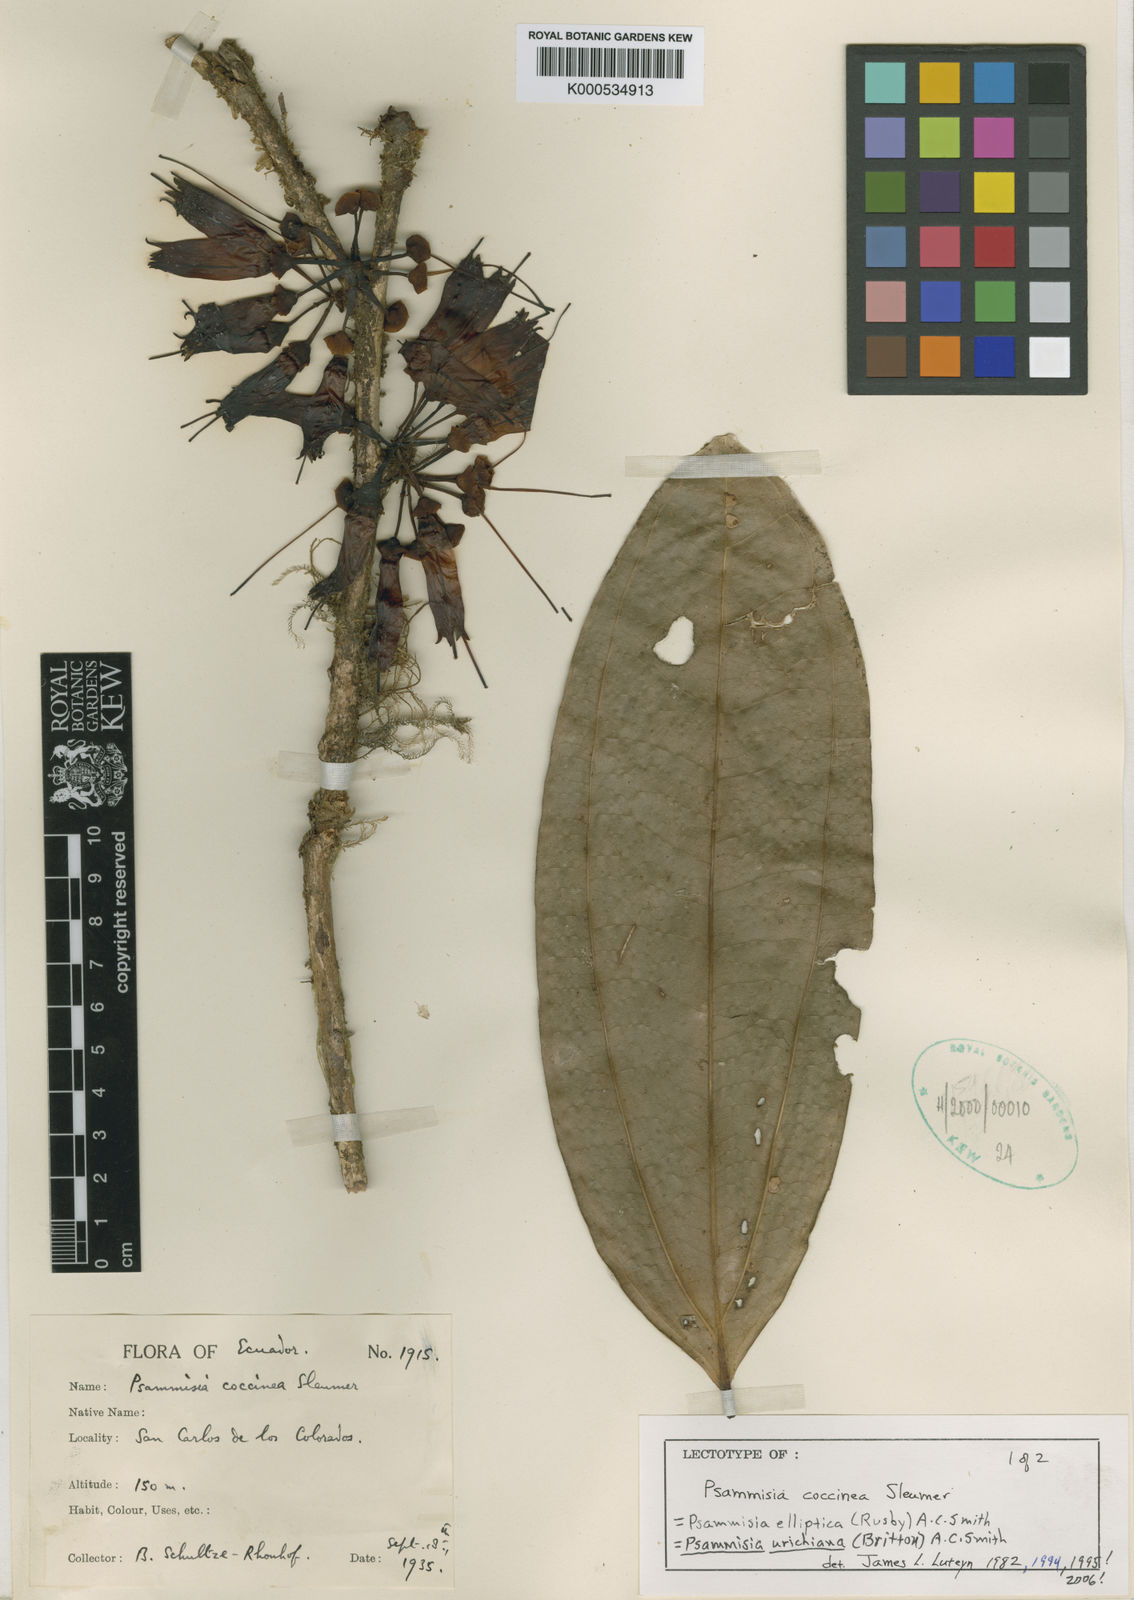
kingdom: Plantae
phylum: Tracheophyta
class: Magnoliopsida
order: Ericales
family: Ericaceae
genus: Psammisia
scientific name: Psammisia urichiana
